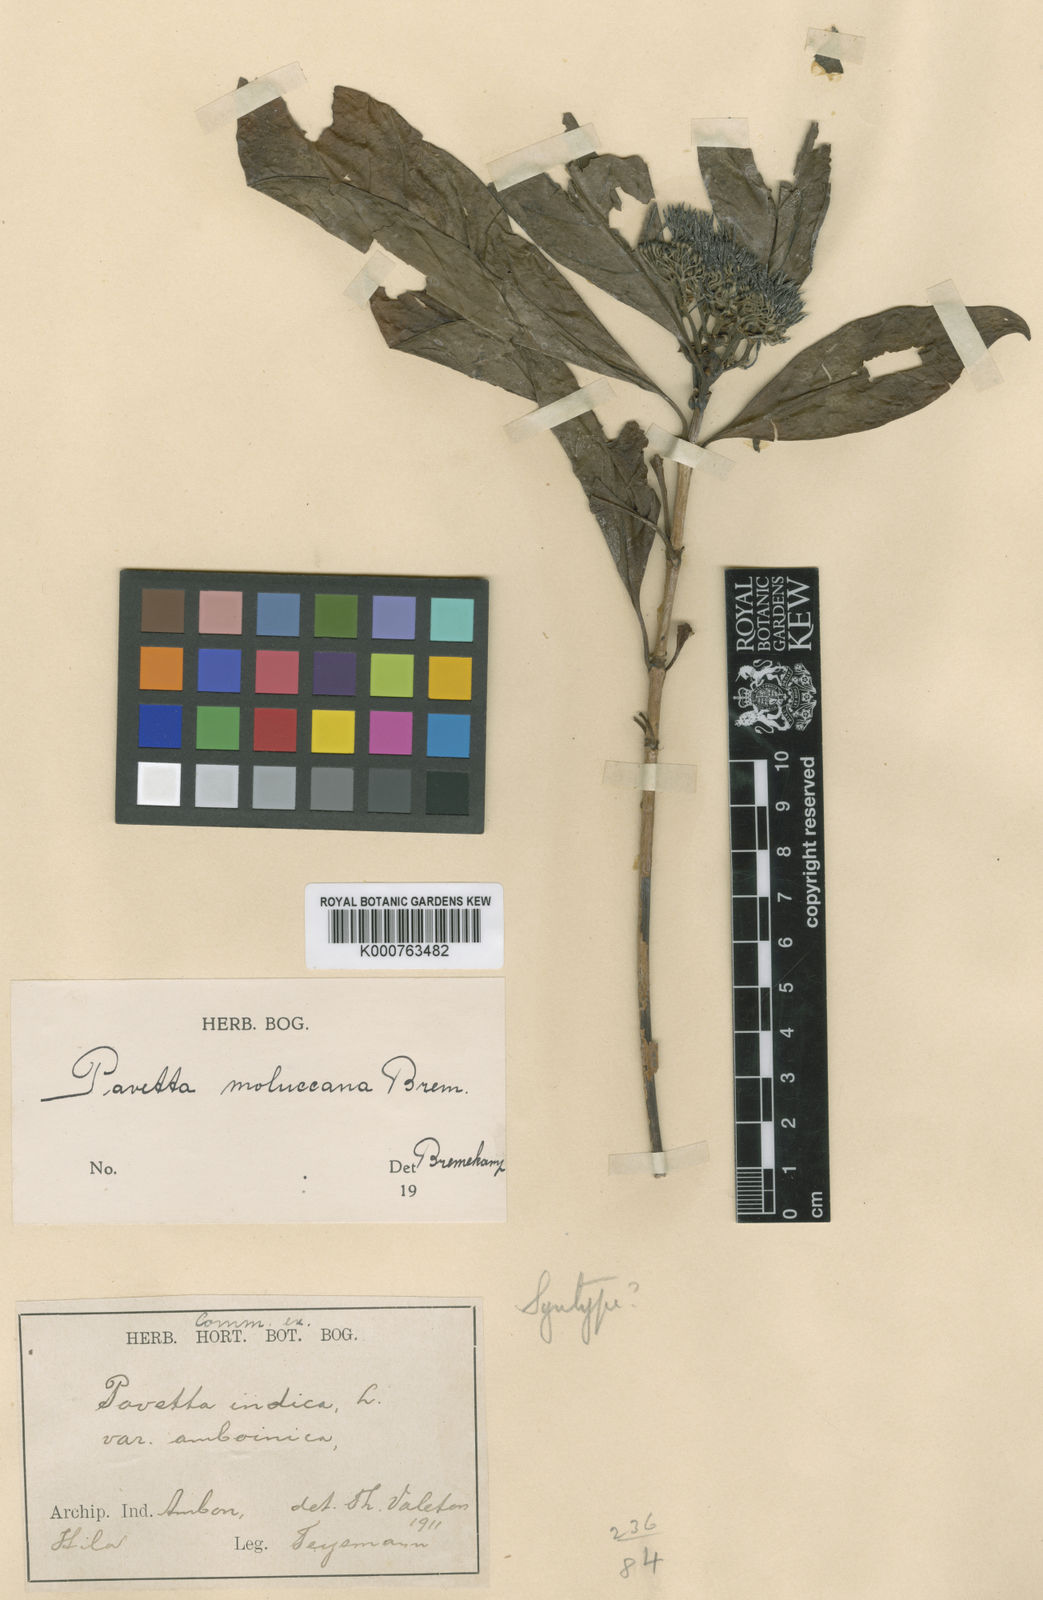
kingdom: Plantae
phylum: Tracheophyta
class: Magnoliopsida
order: Gentianales
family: Rubiaceae
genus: Pavetta
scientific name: Pavetta moluccana
